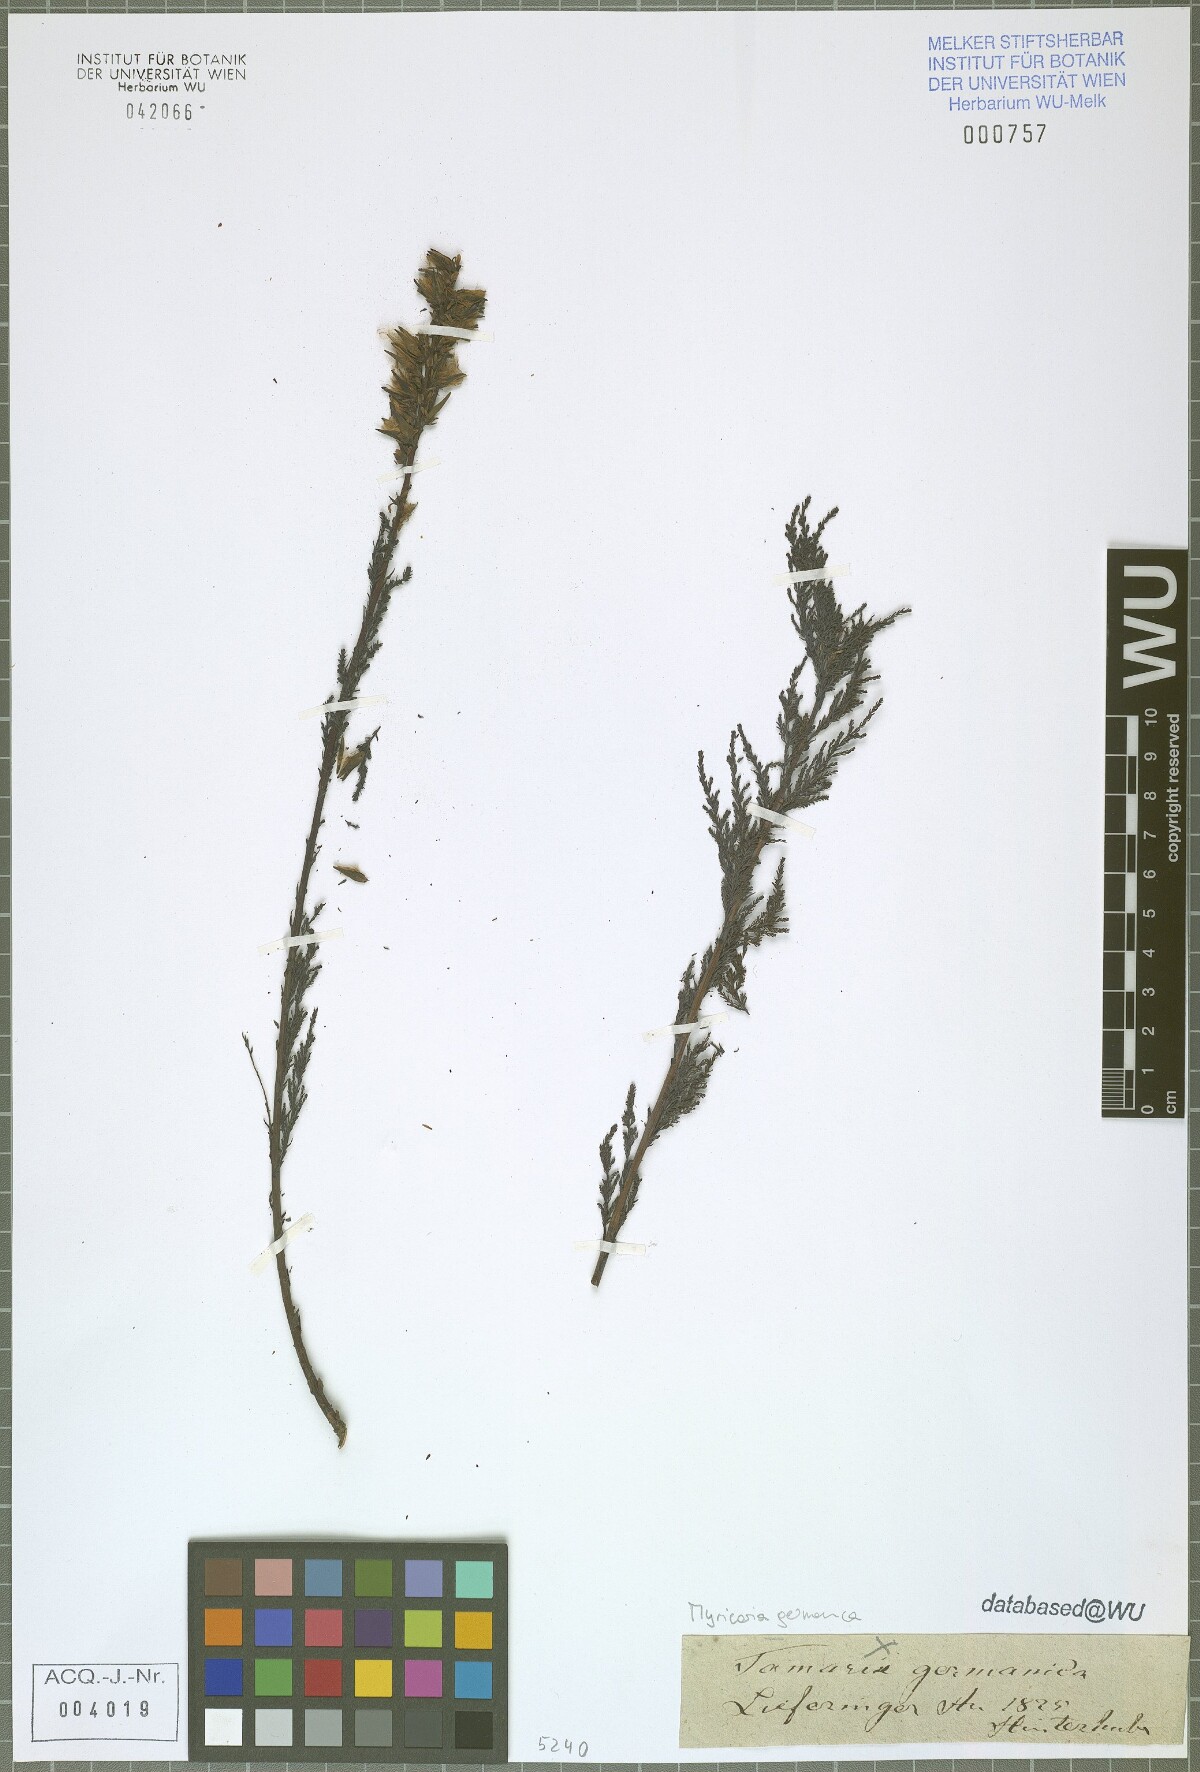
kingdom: Plantae
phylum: Tracheophyta
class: Magnoliopsida
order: Caryophyllales
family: Tamaricaceae
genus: Myricaria
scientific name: Myricaria germanica
